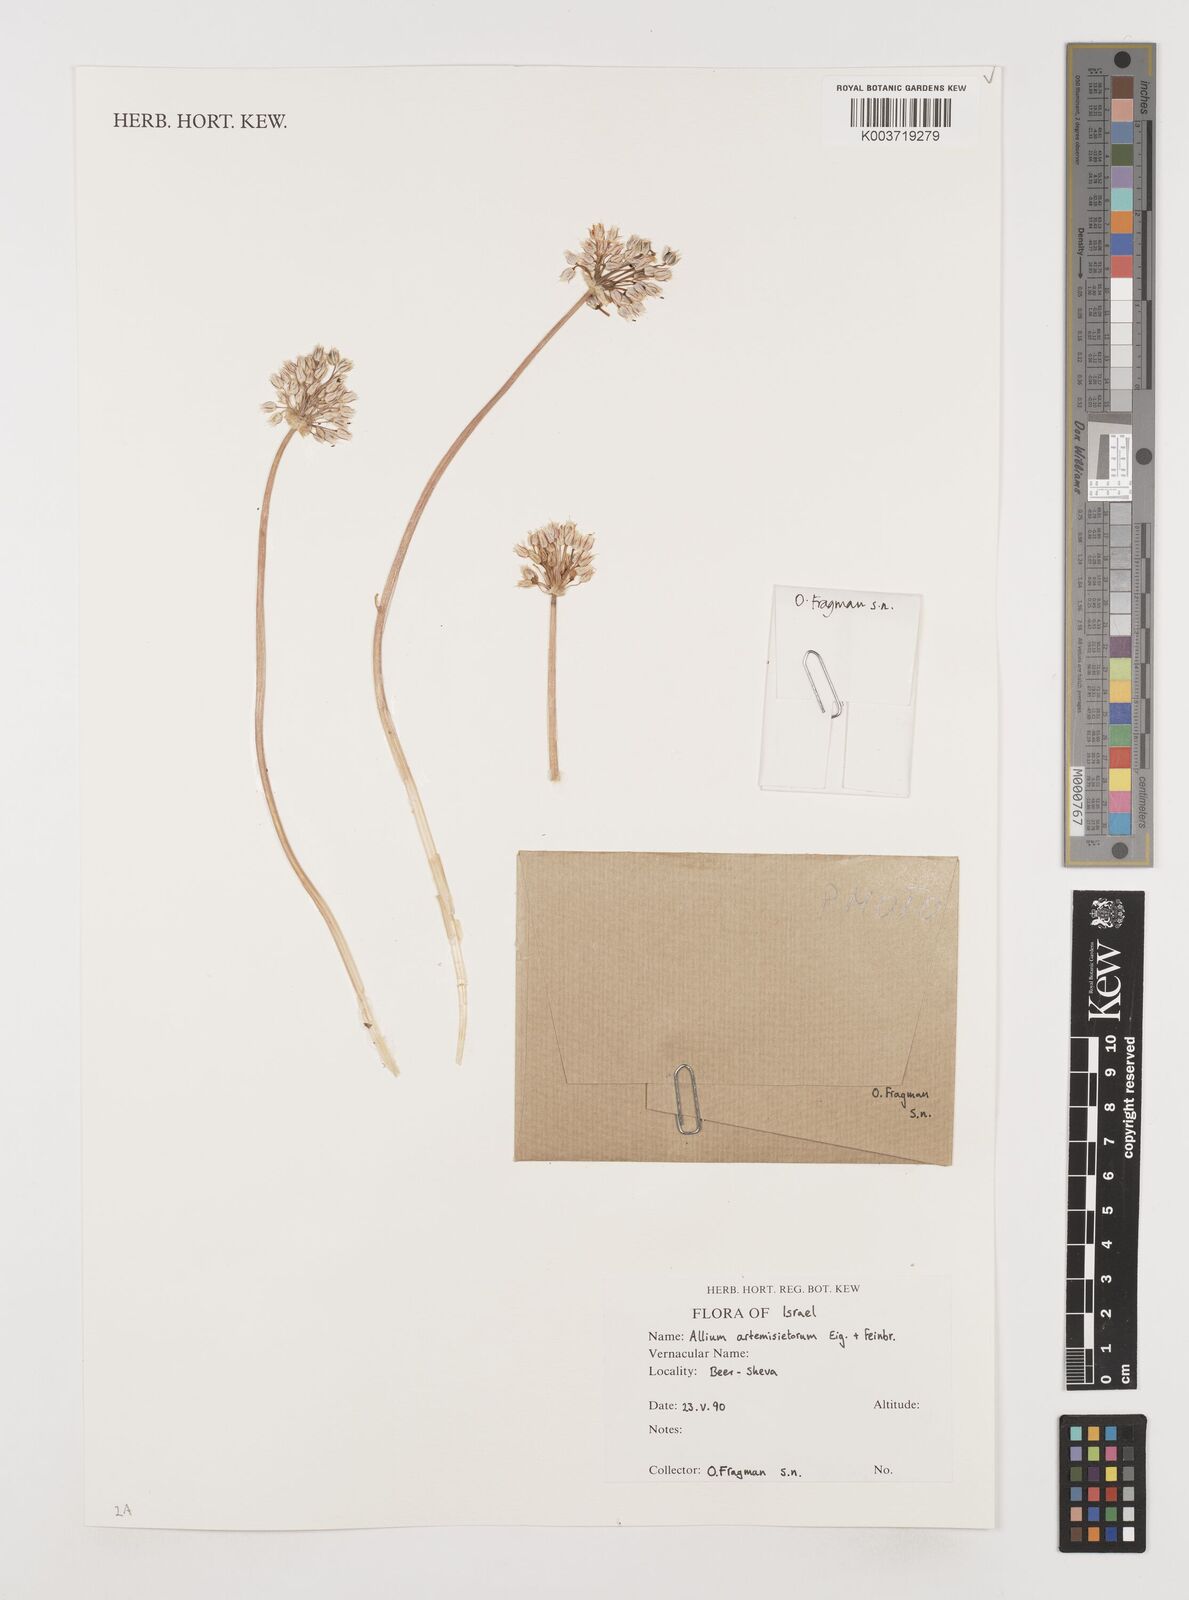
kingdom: Plantae
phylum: Tracheophyta
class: Liliopsida
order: Asparagales
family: Amaryllidaceae
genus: Allium
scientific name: Allium artemisietorum
